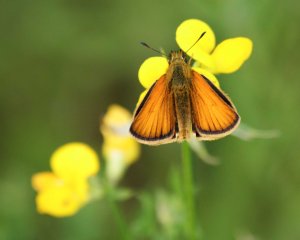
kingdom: Animalia
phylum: Arthropoda
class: Insecta
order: Lepidoptera
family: Hesperiidae
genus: Thymelicus
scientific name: Thymelicus lineola
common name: European Skipper
